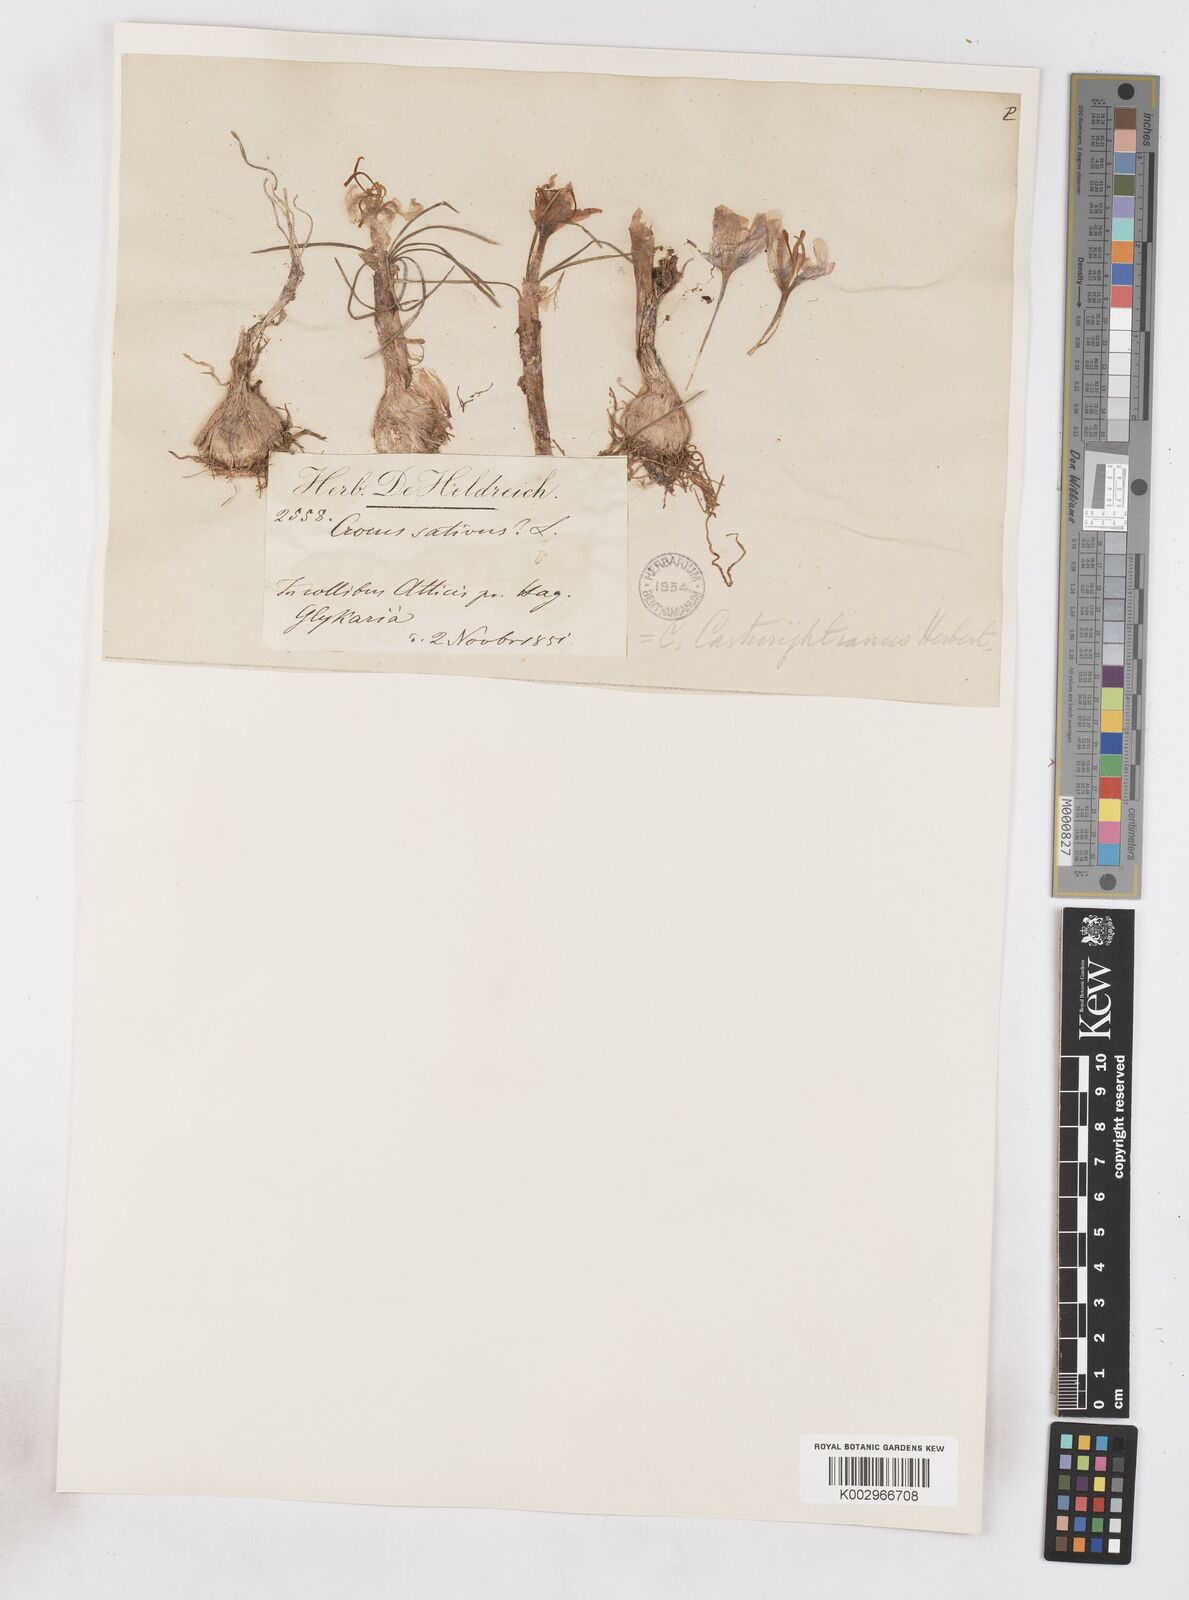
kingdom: Plantae
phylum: Tracheophyta
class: Liliopsida
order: Asparagales
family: Iridaceae
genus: Crocus
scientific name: Crocus cartwrightianus
